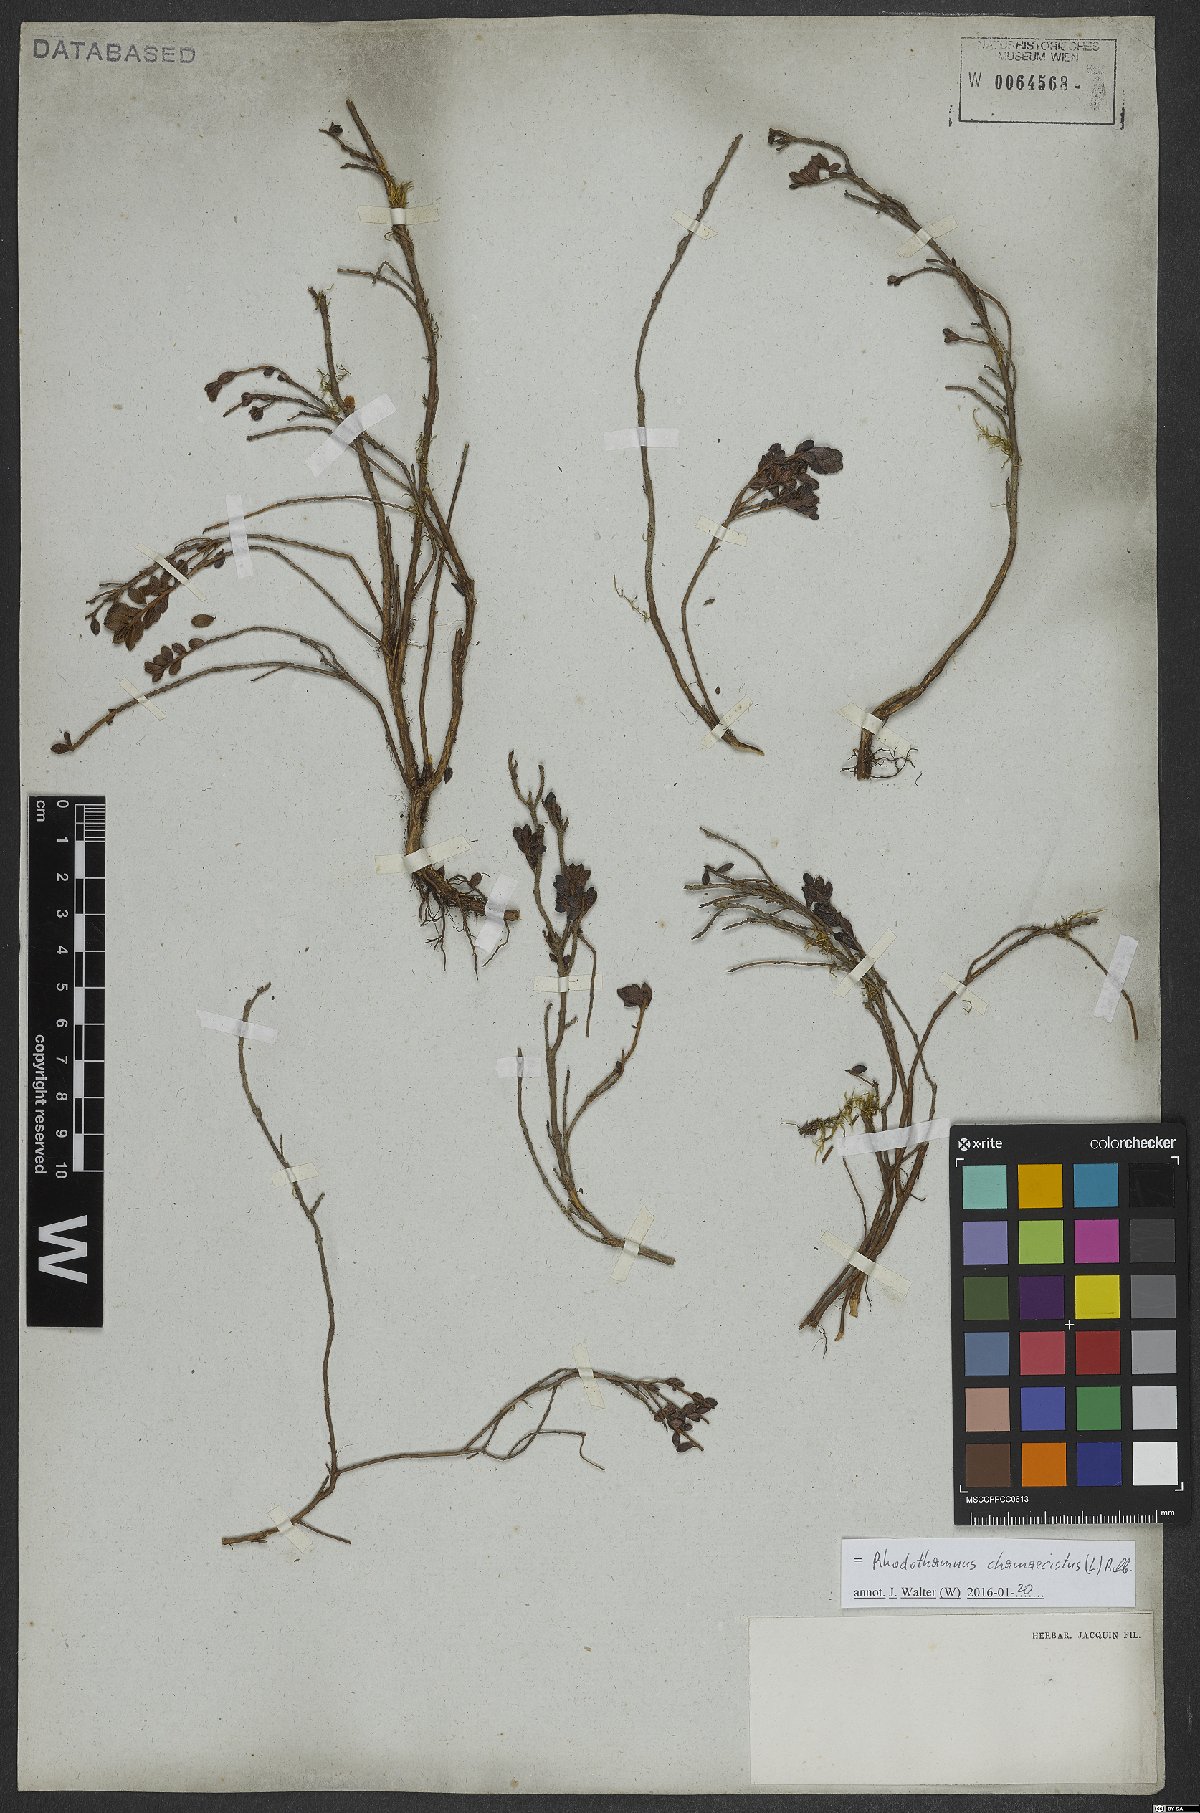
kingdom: Plantae
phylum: Tracheophyta
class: Magnoliopsida
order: Ericales
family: Ericaceae
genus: Rhodothamnus
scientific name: Rhodothamnus chamaecistus
